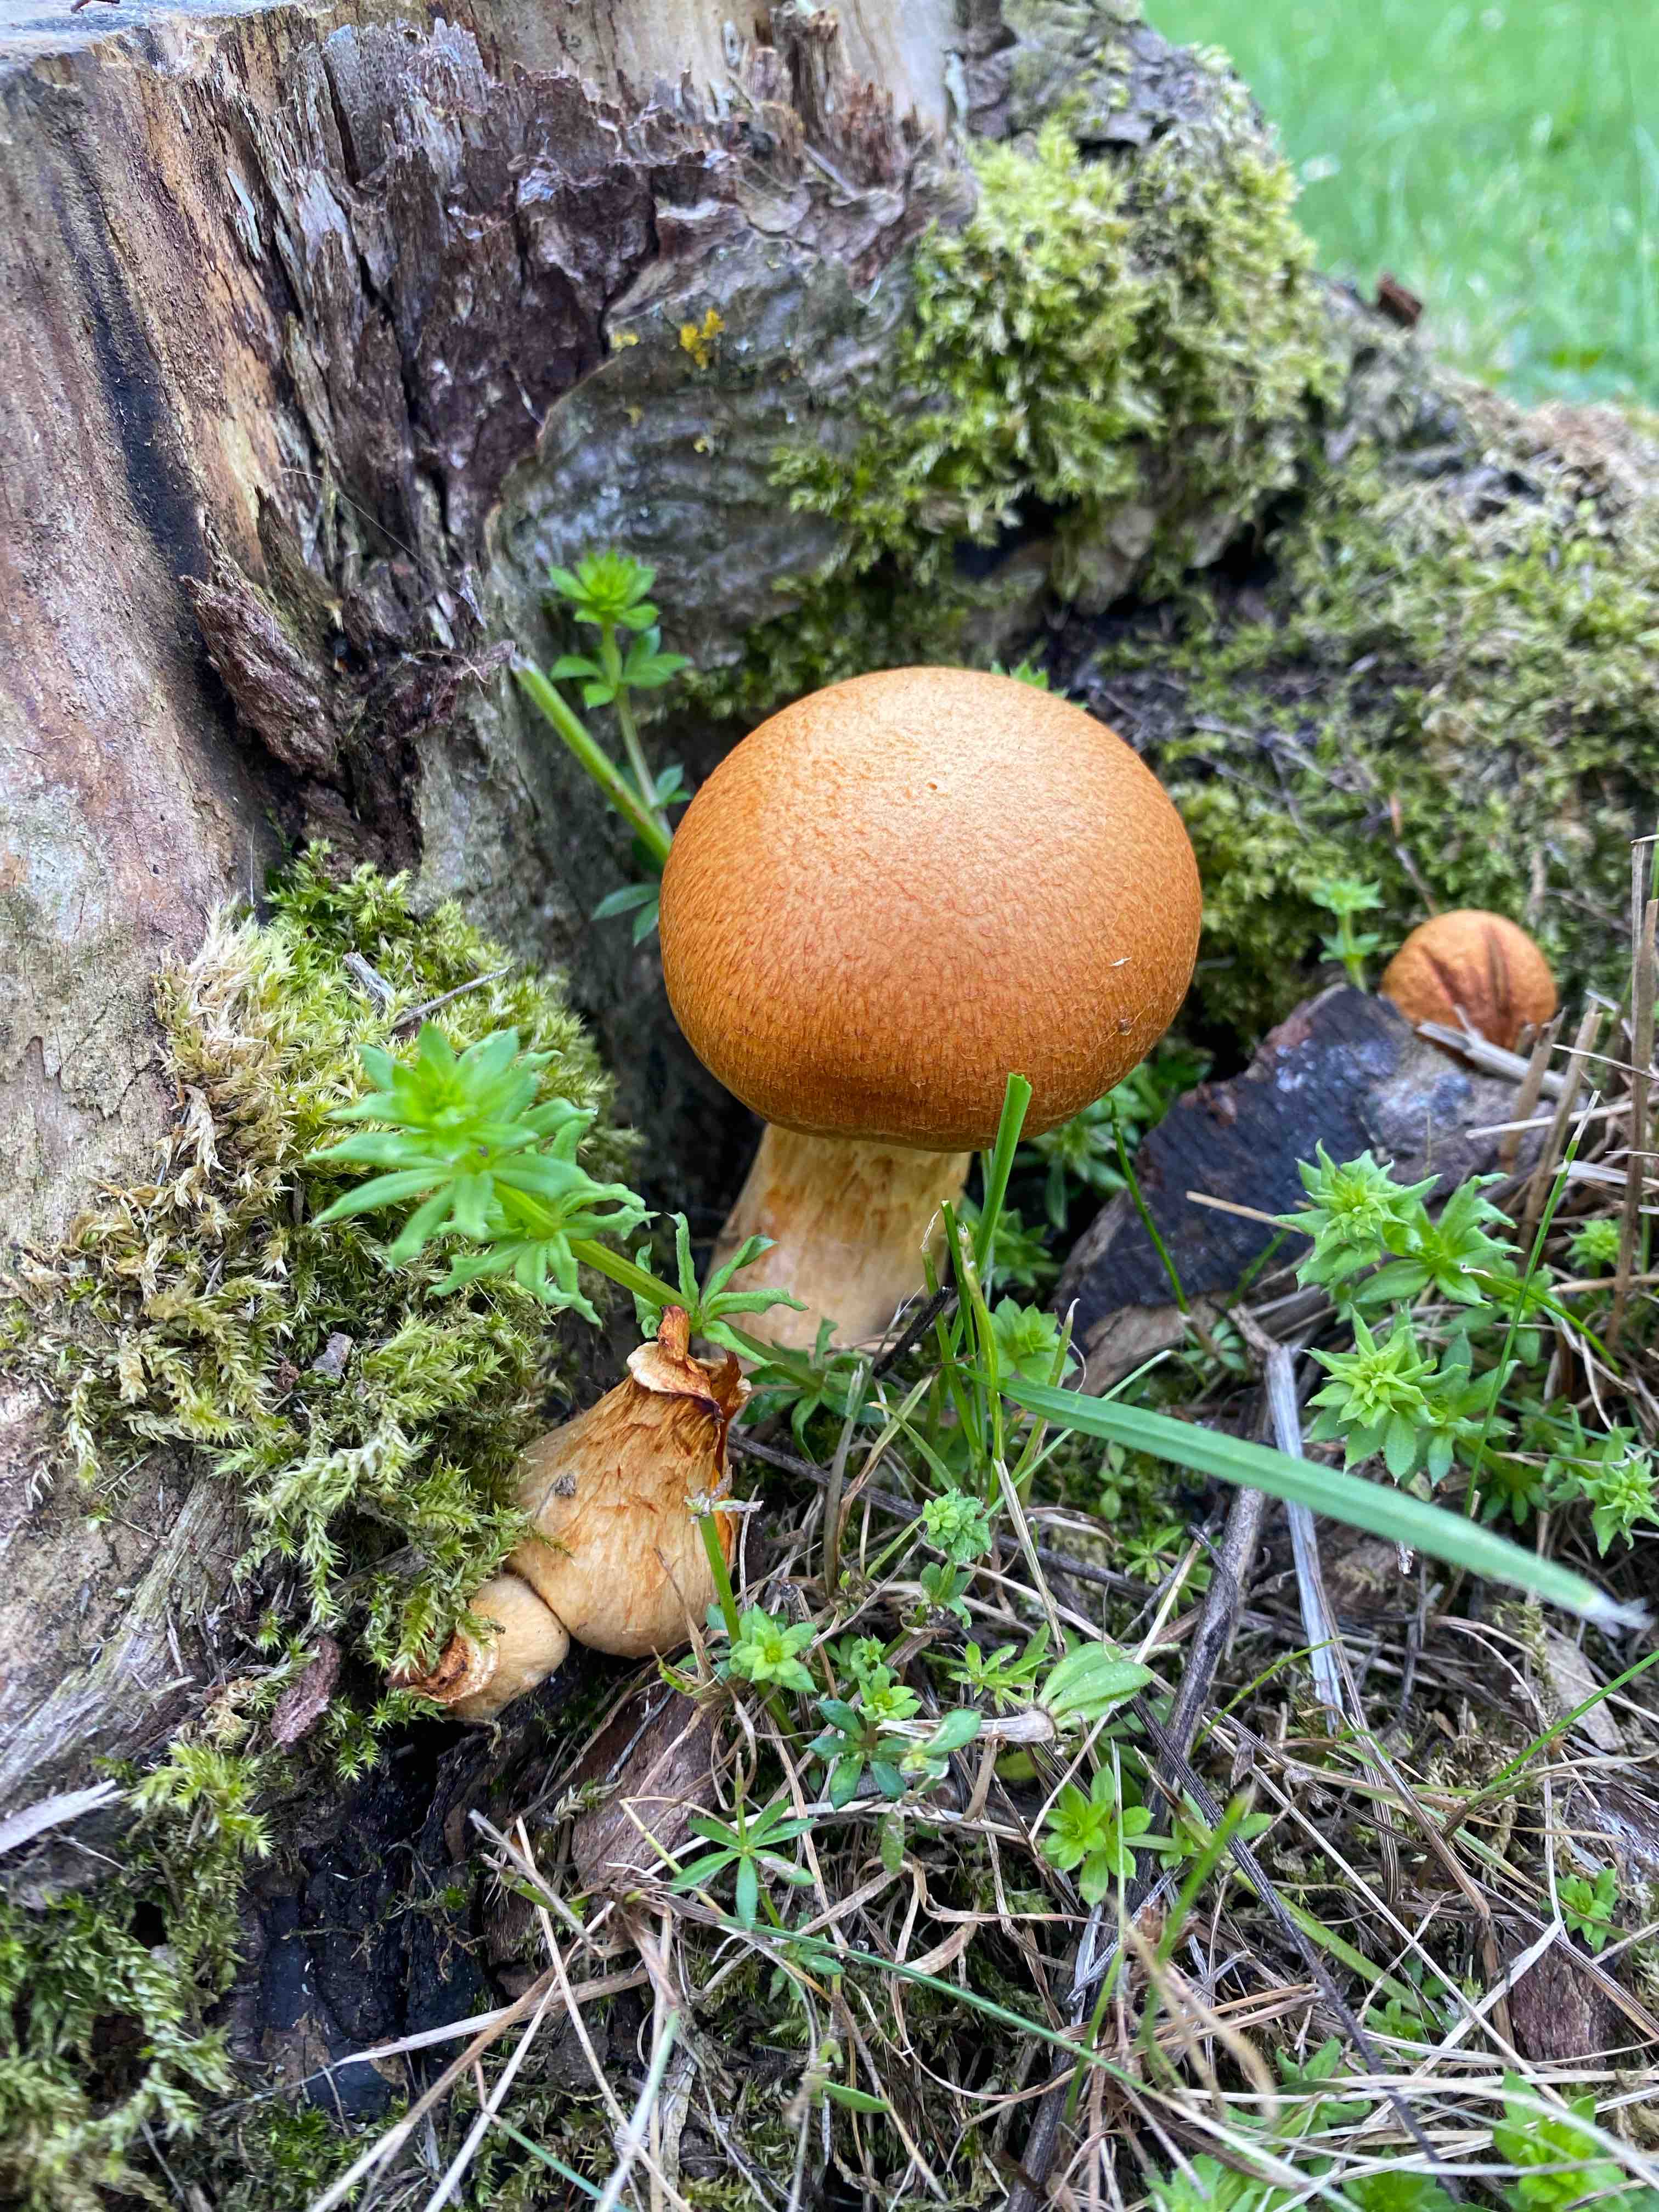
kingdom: Fungi
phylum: Basidiomycota
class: Agaricomycetes
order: Agaricales
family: Hymenogastraceae
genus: Gymnopilus
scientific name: Gymnopilus spectabilis
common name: fibret flammehat
